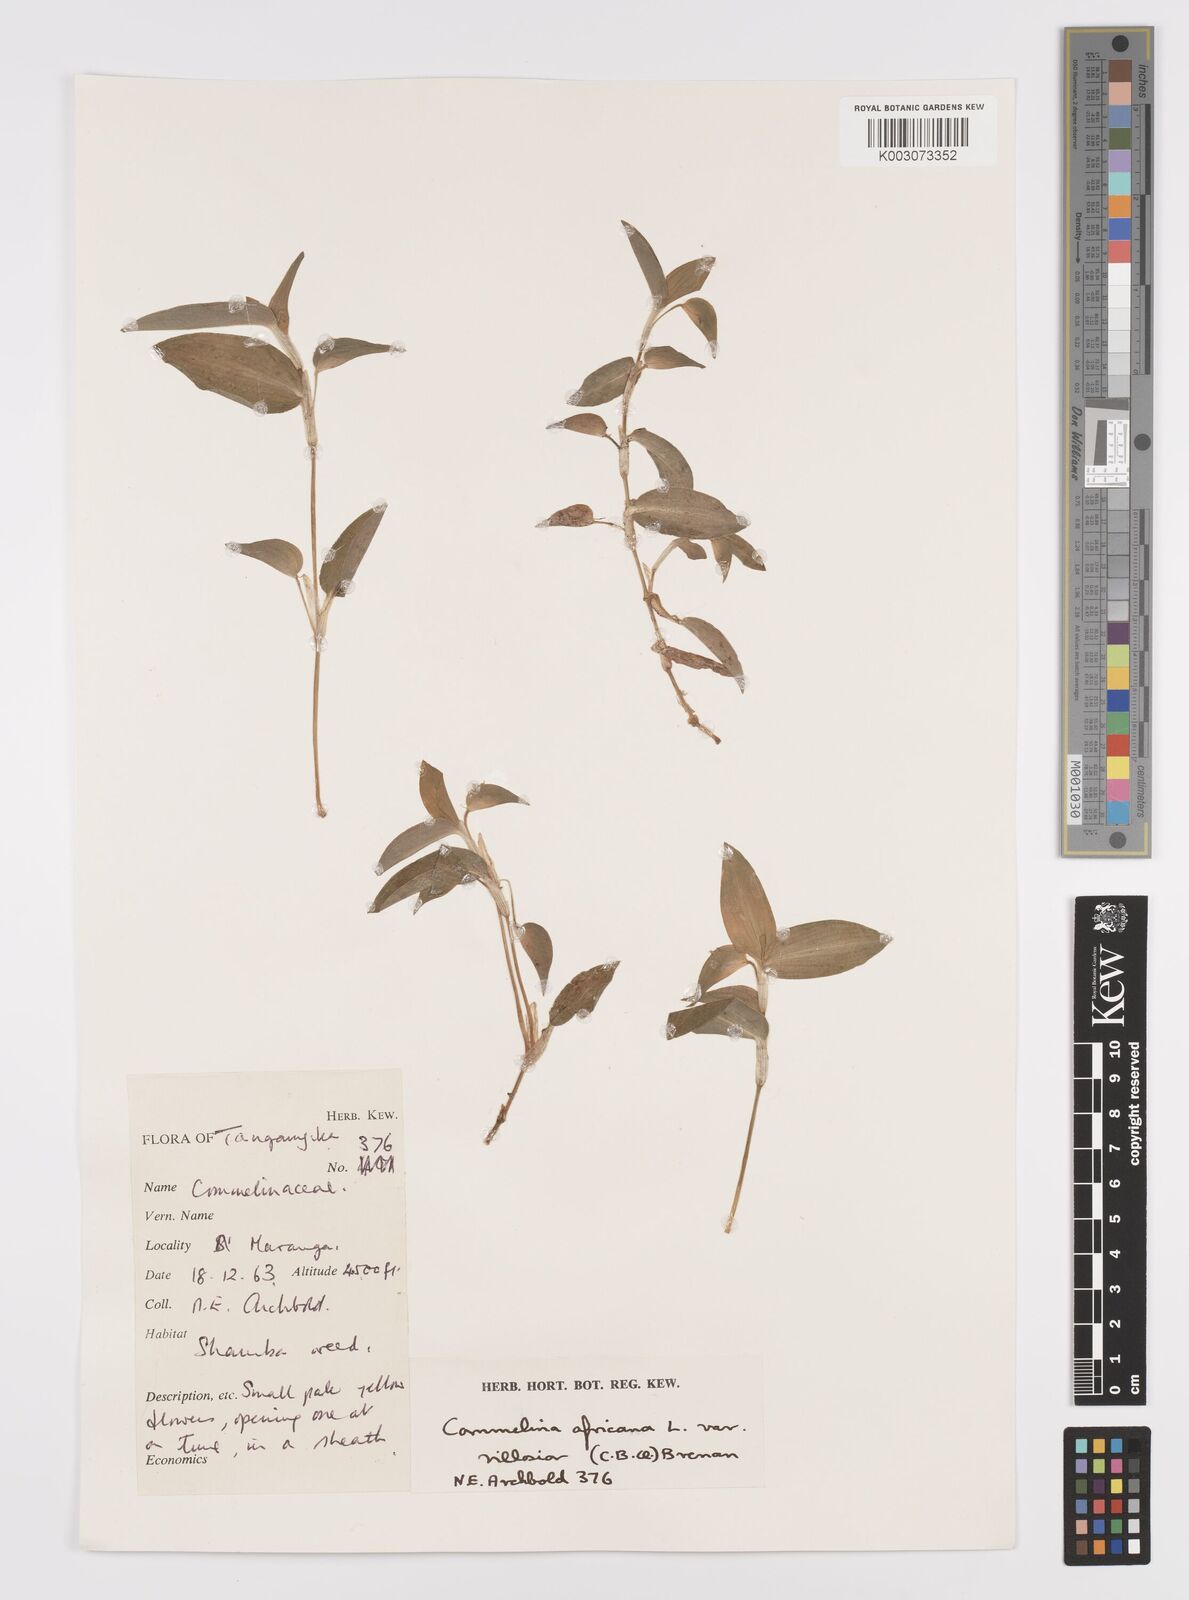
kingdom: Plantae
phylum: Tracheophyta
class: Liliopsida
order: Commelinales
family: Commelinaceae
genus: Commelina
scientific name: Commelina africana
